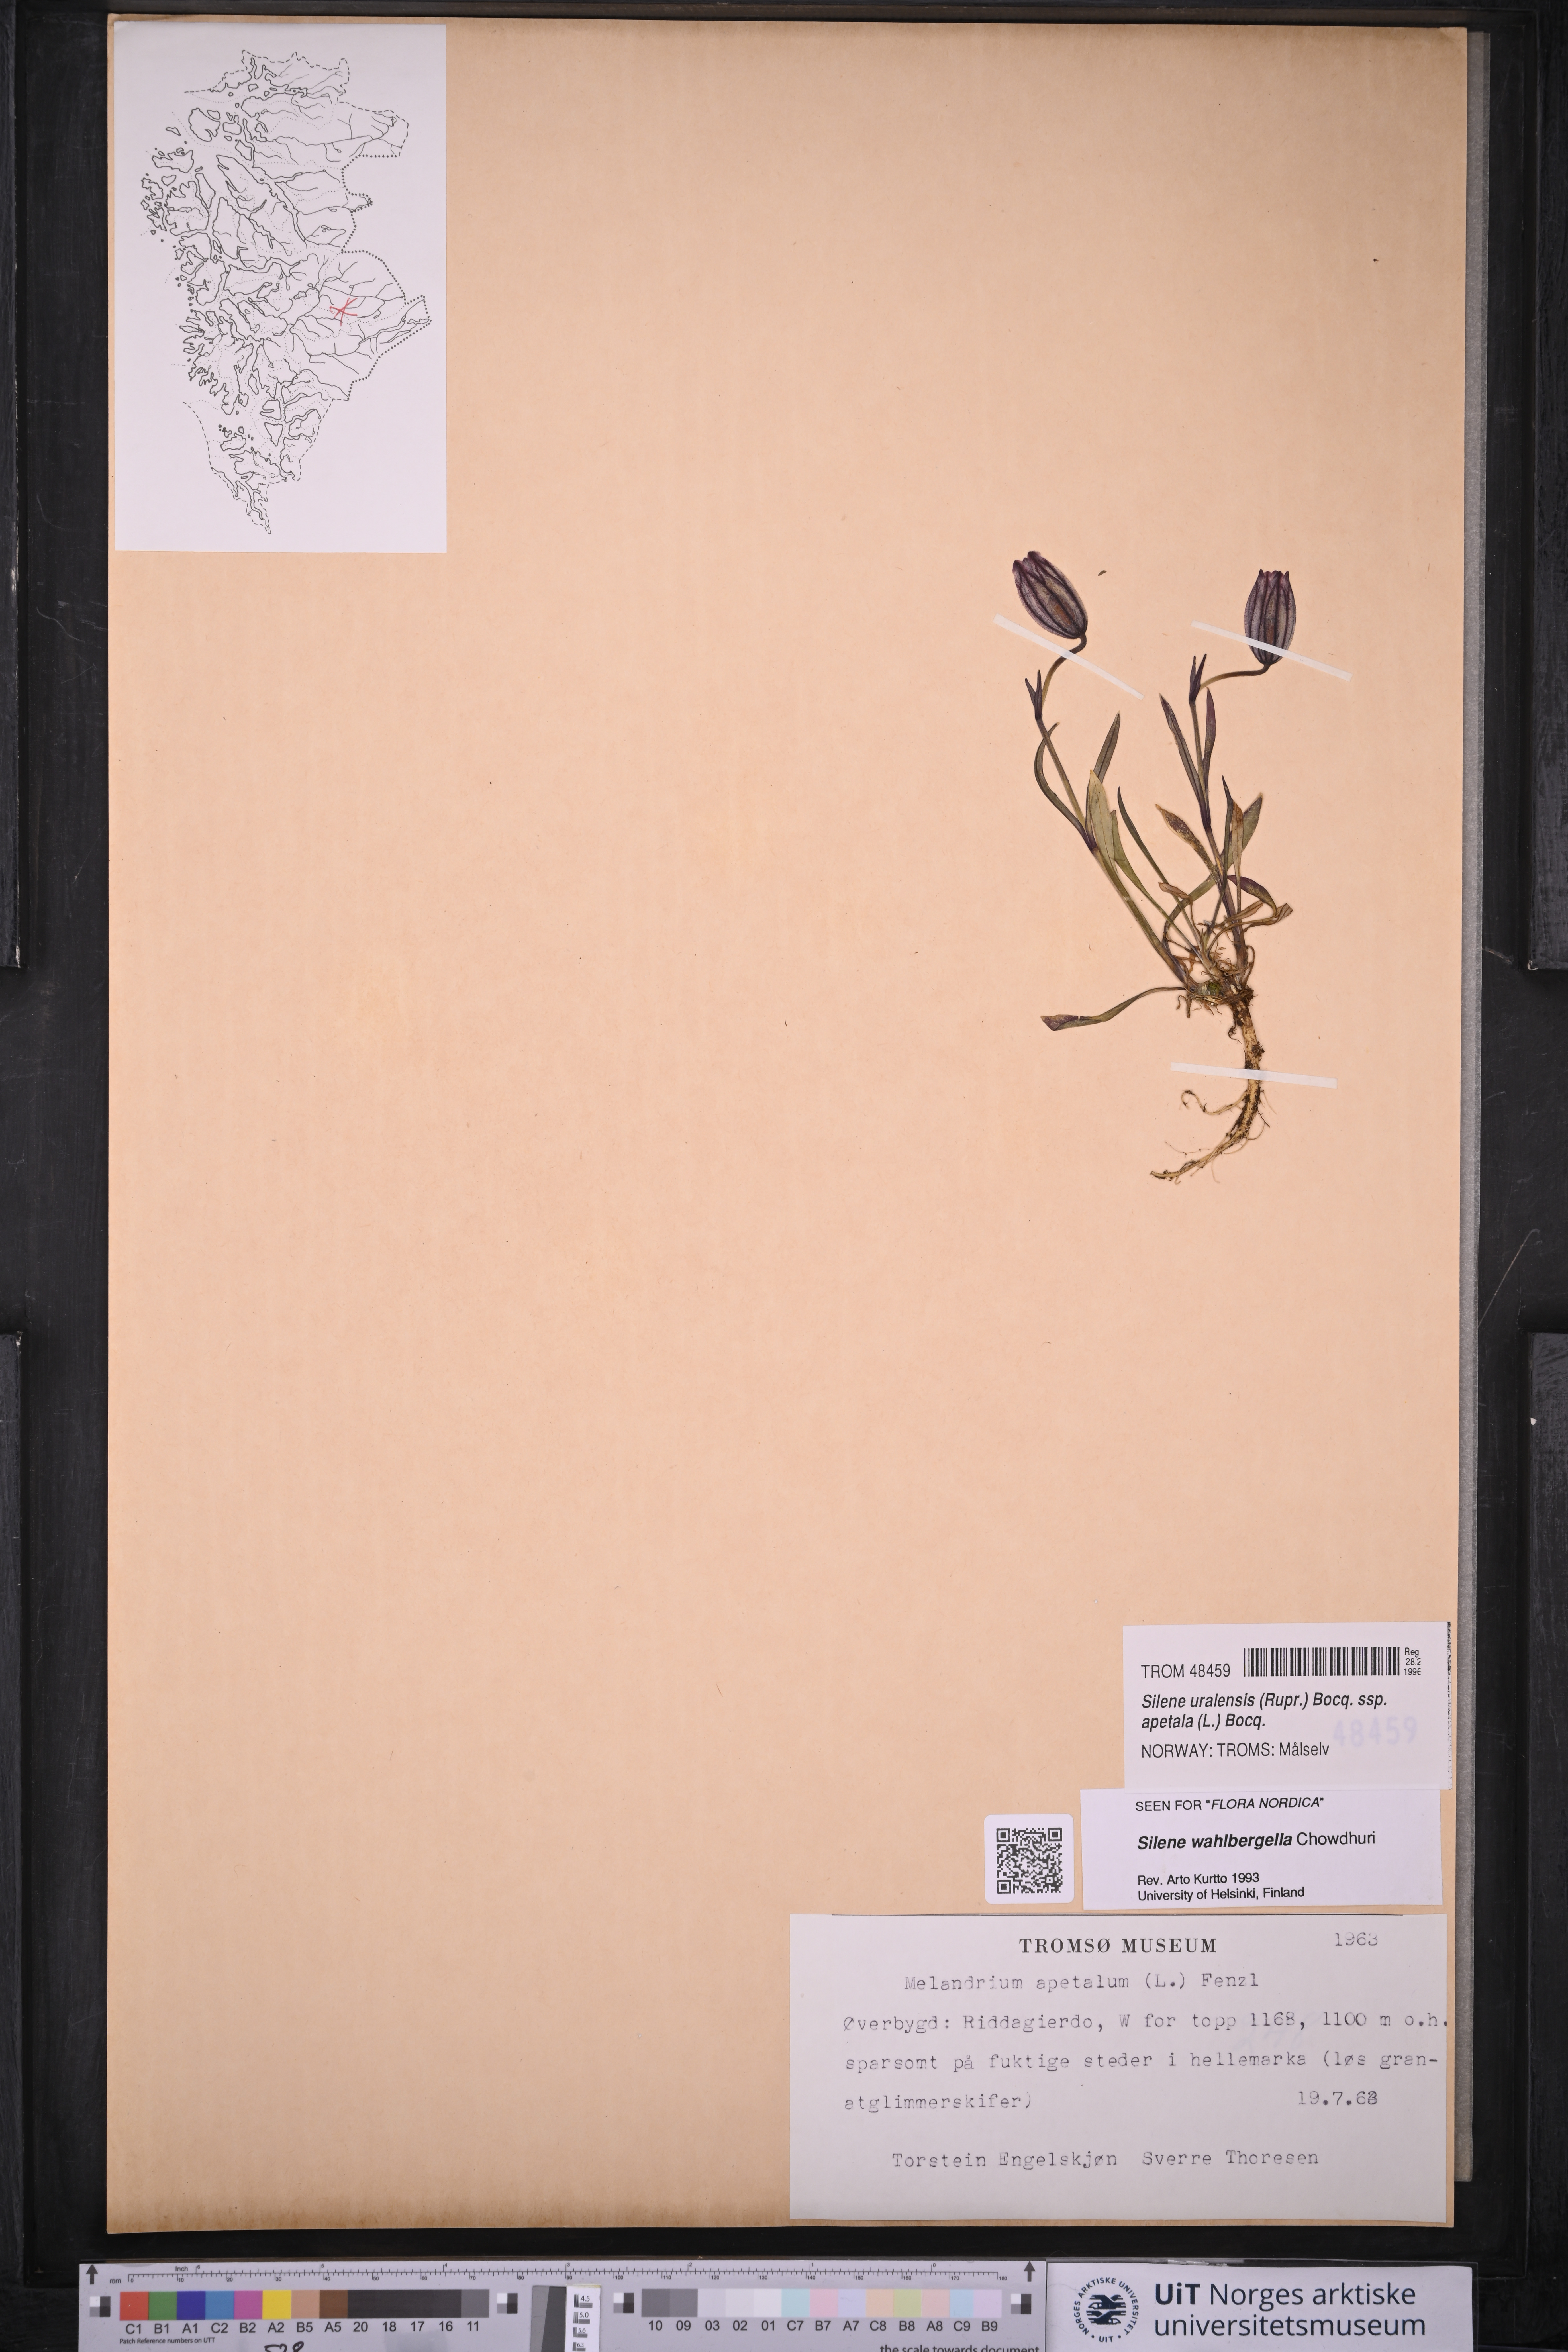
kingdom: Plantae
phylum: Tracheophyta
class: Magnoliopsida
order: Caryophyllales
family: Caryophyllaceae
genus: Silene
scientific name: Silene wahlbergella
